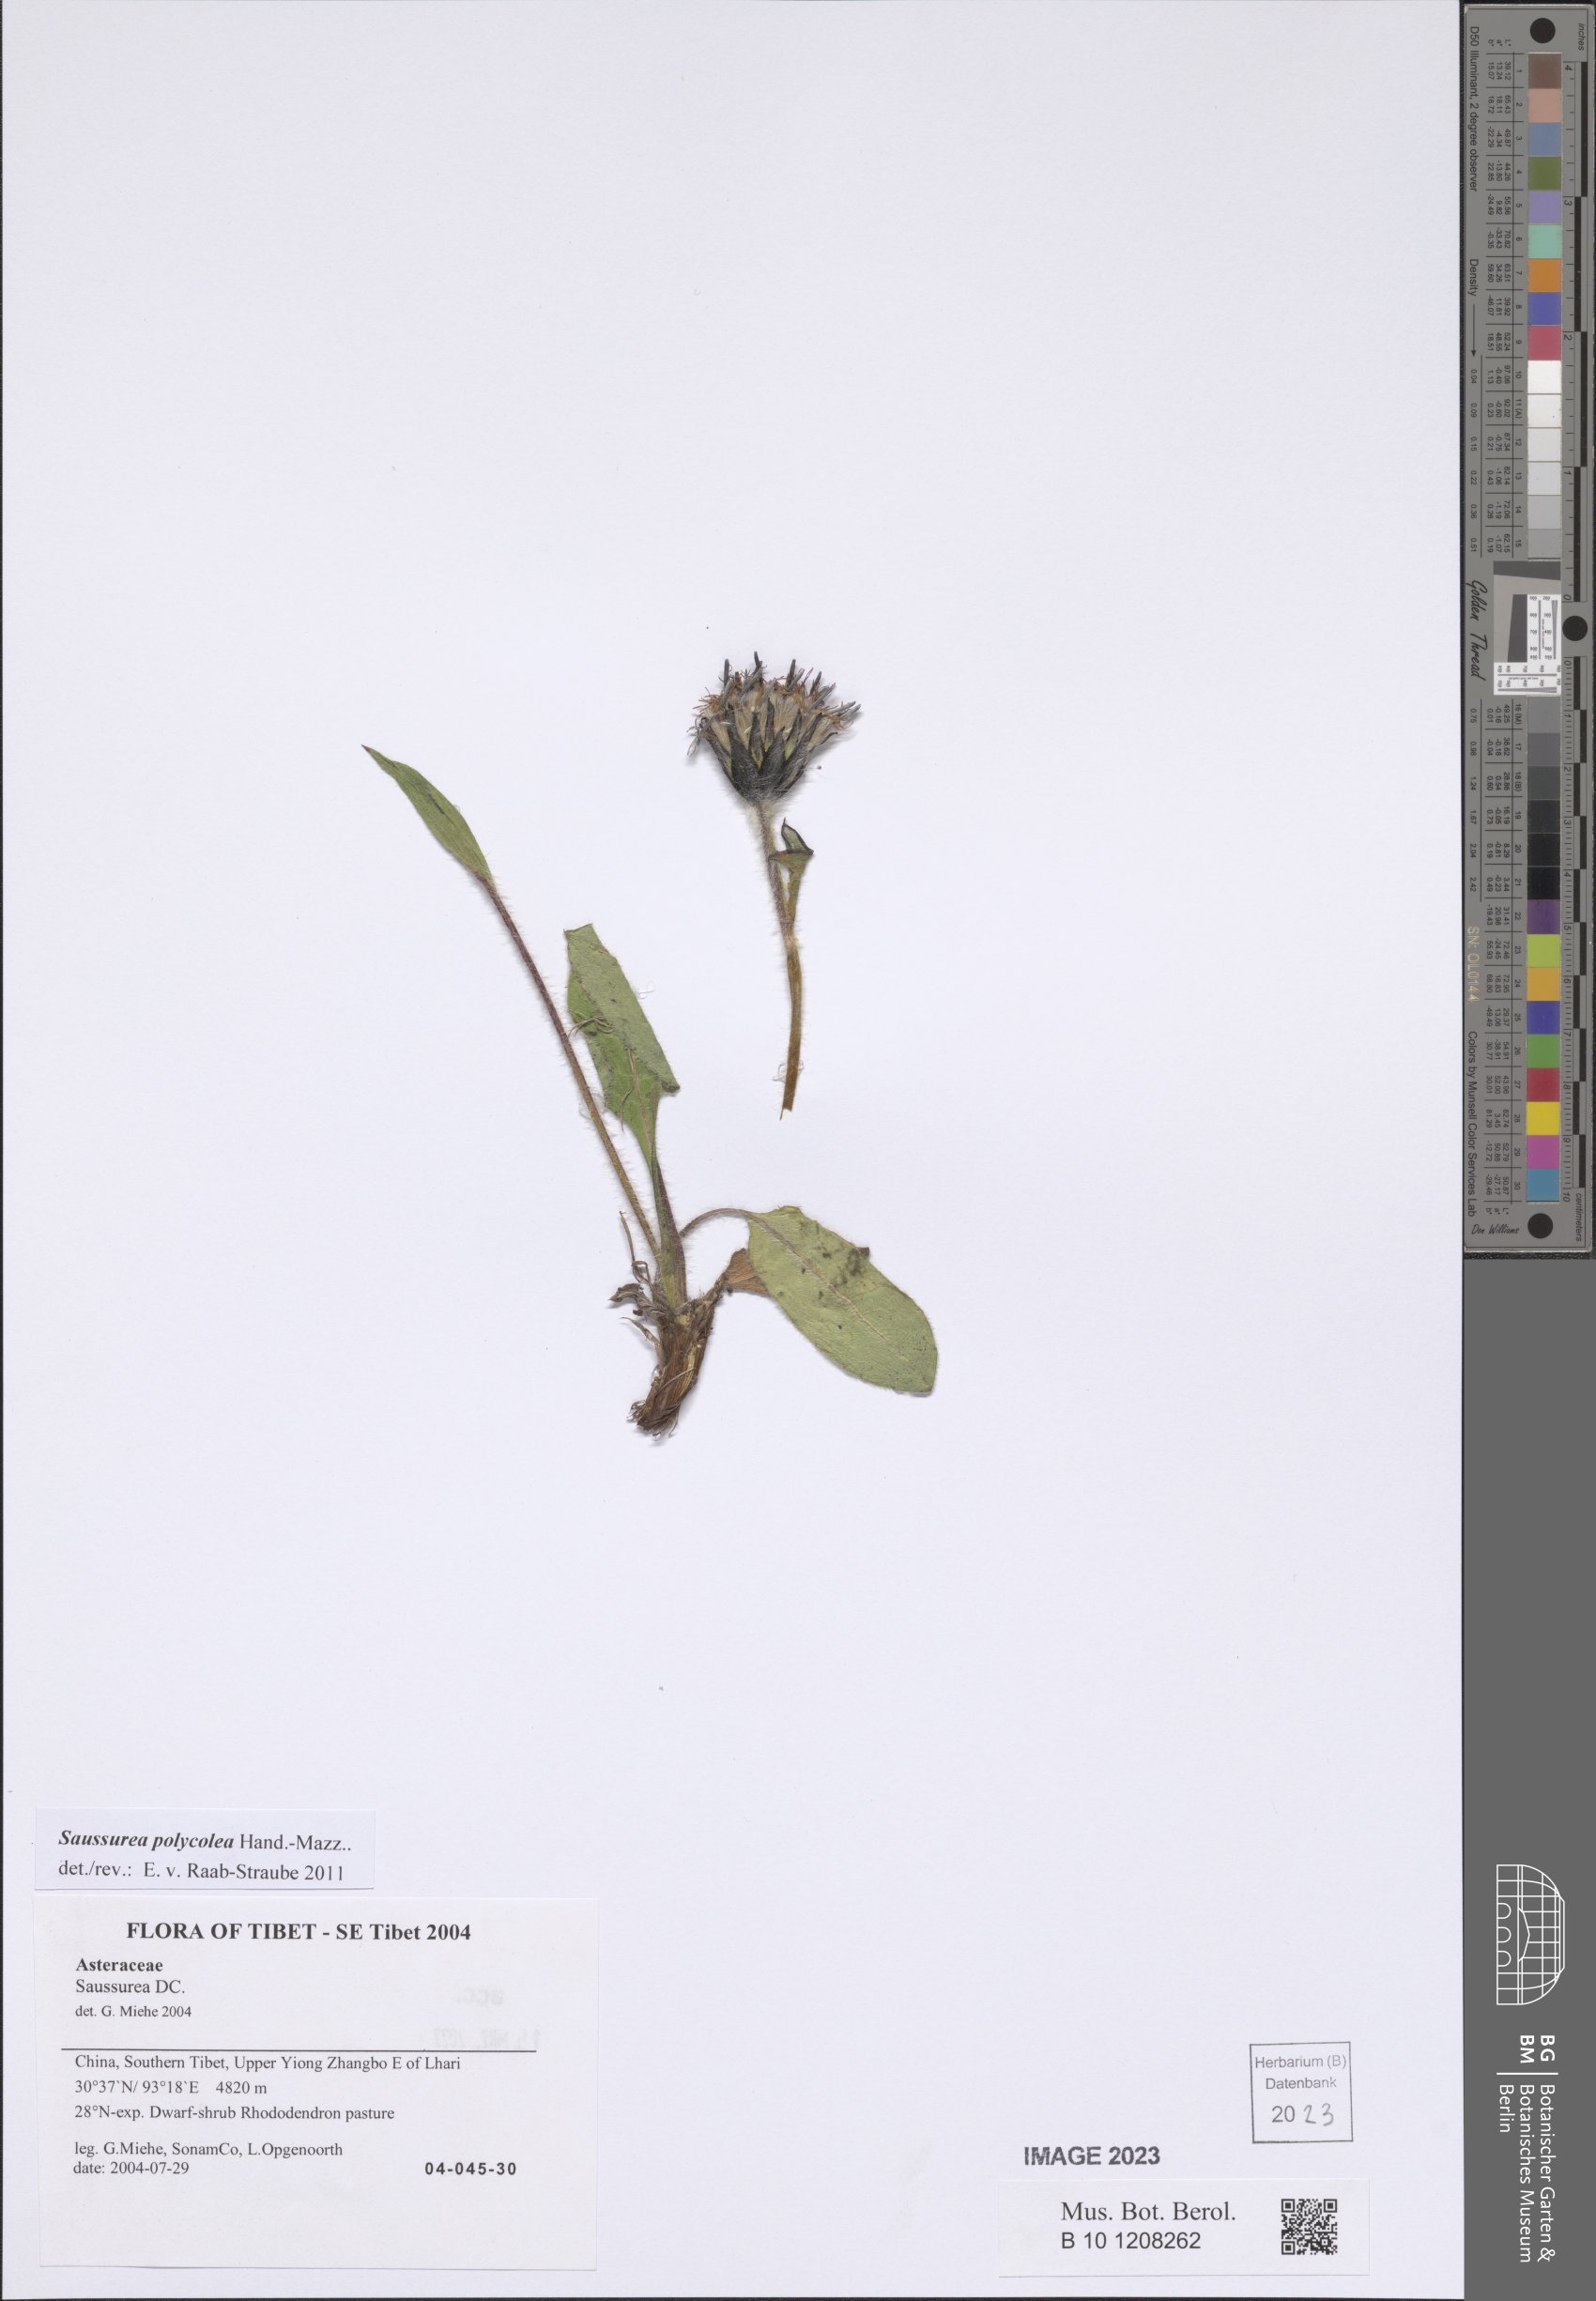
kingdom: Plantae
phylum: Tracheophyta
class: Magnoliopsida
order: Asterales
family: Asteraceae
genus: Saussurea
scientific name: Saussurea polycolea
